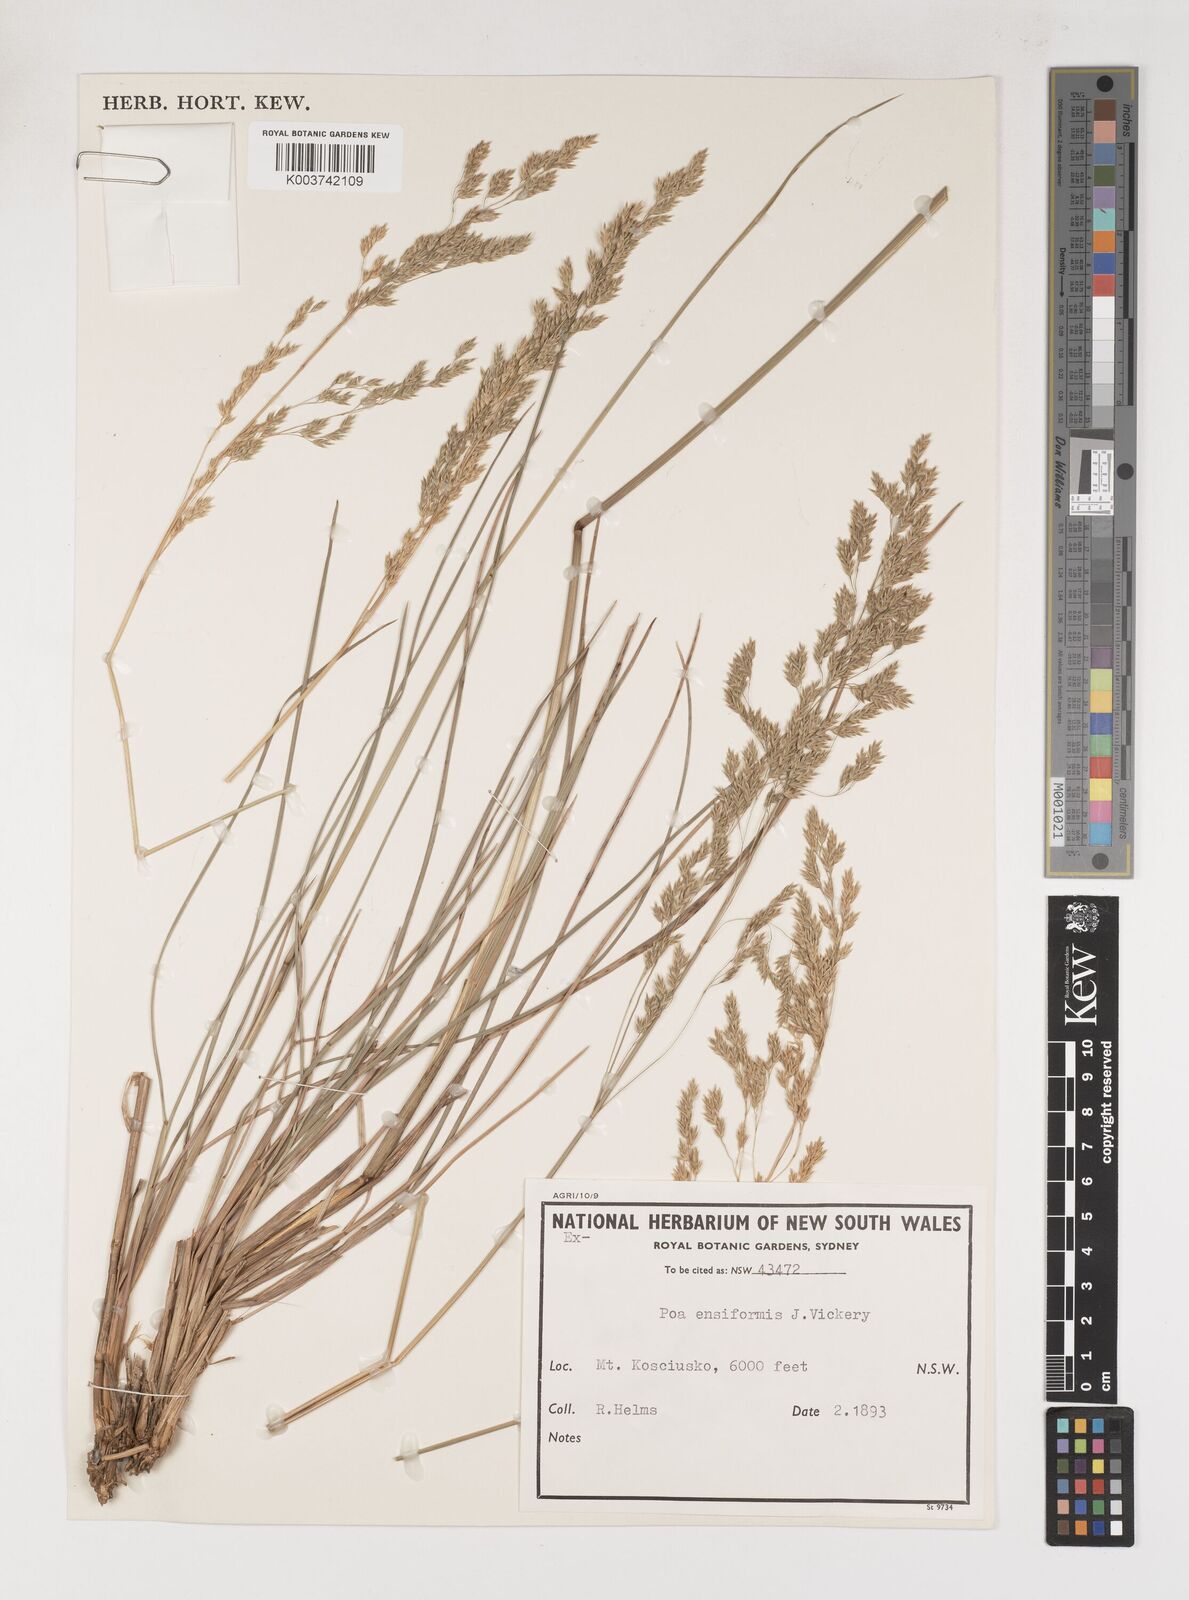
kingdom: Plantae
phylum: Tracheophyta
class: Liliopsida
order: Poales
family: Poaceae
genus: Poa
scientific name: Poa ensiformis
